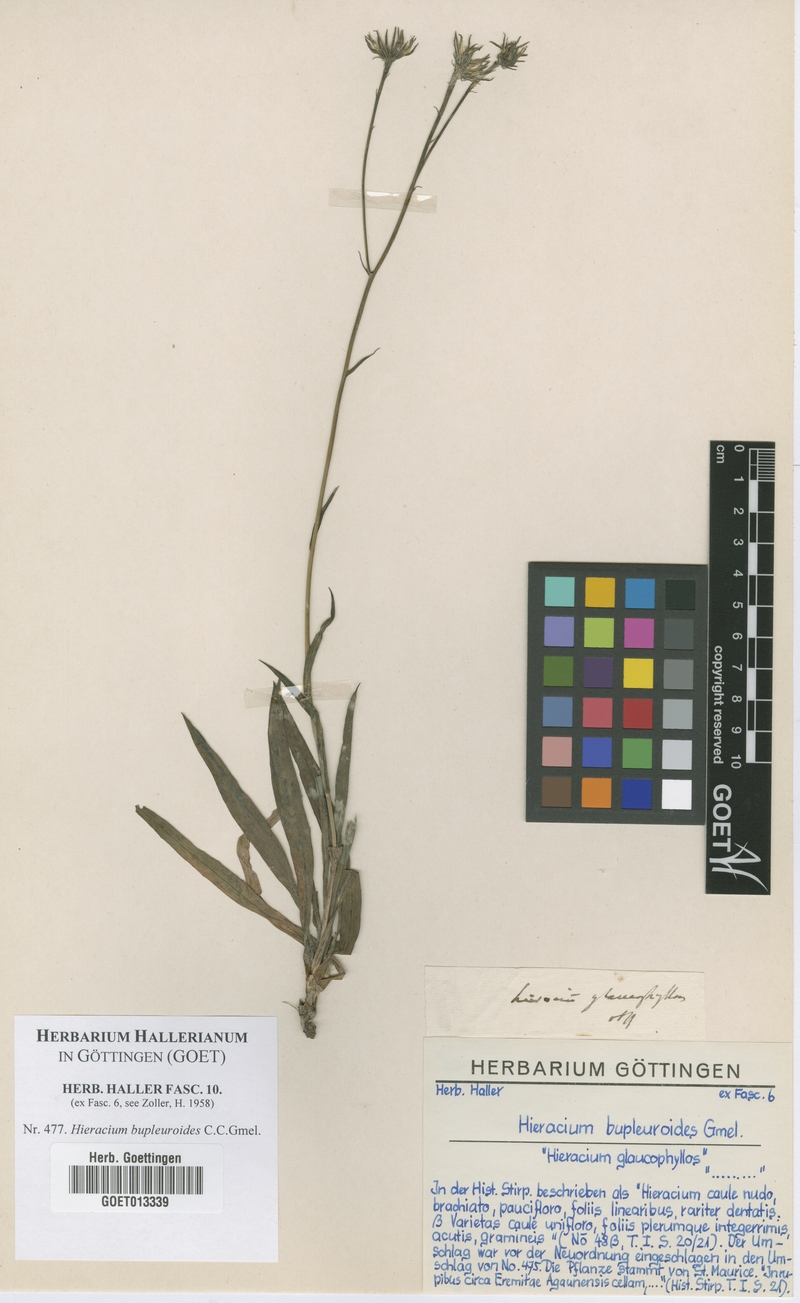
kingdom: Plantae
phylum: Tracheophyta
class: Magnoliopsida
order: Asterales
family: Asteraceae
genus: Hieracium
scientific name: Hieracium bupleuroides
